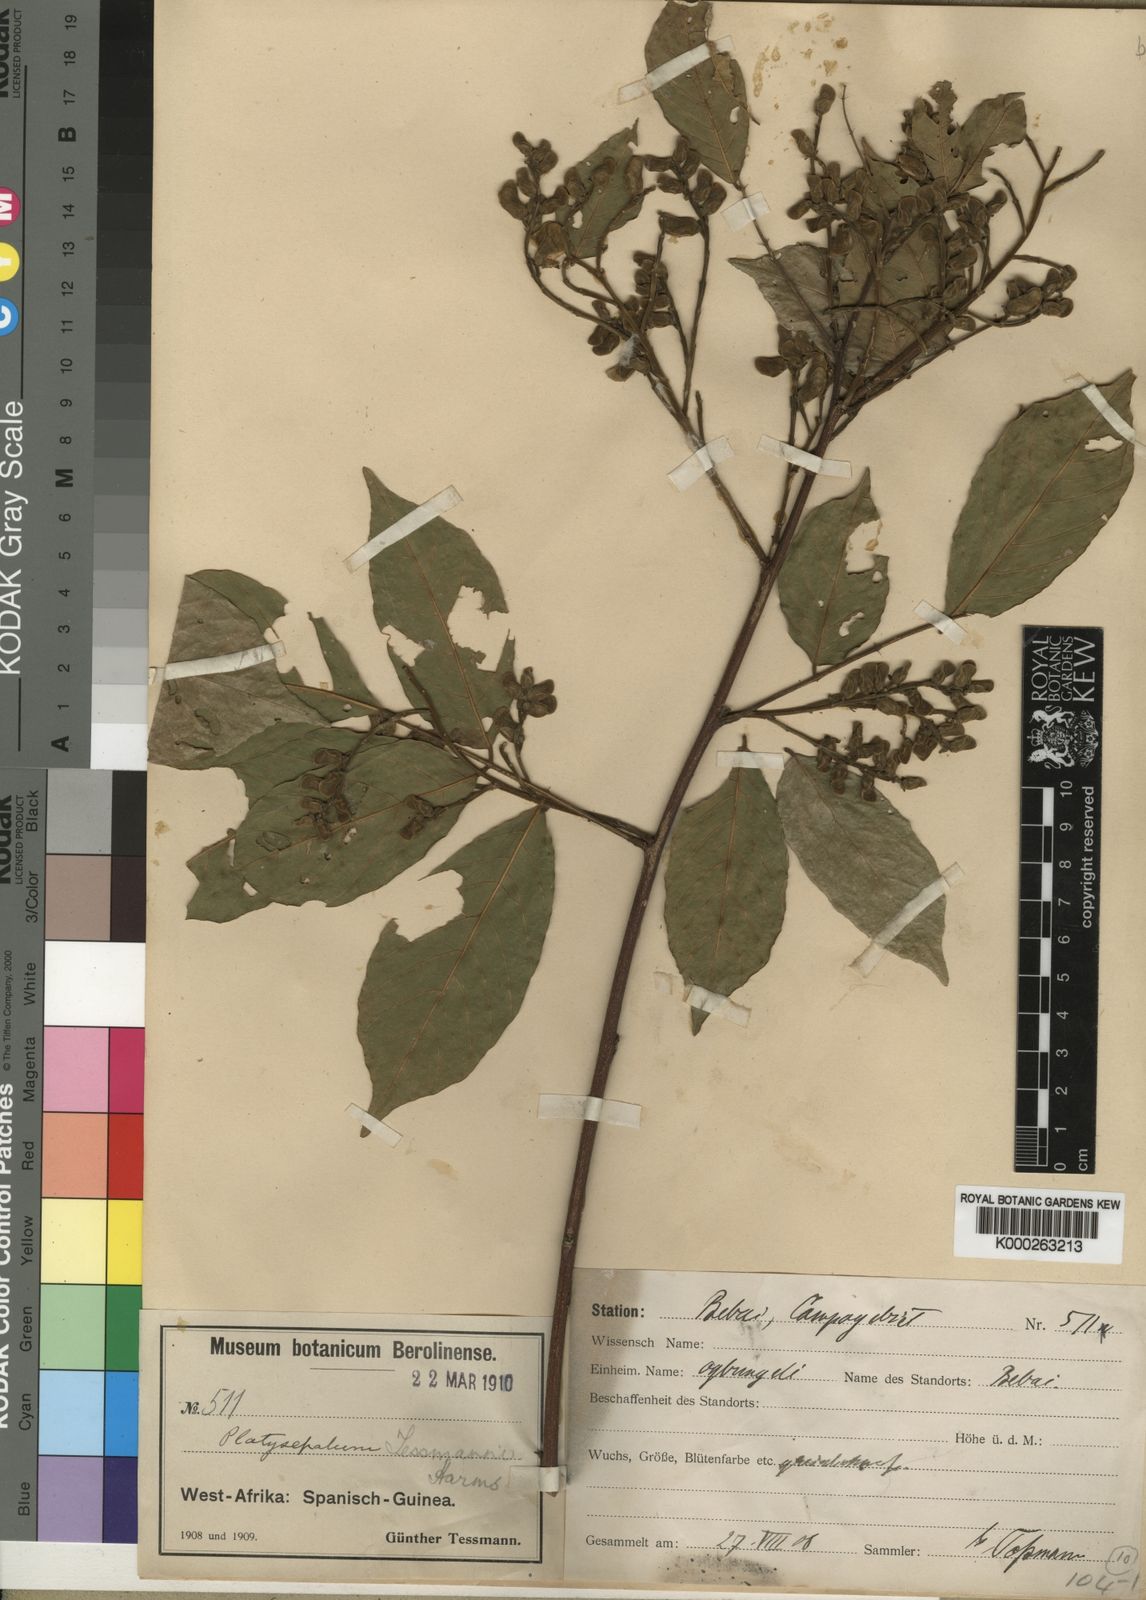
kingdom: Plantae
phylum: Tracheophyta
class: Magnoliopsida
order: Fabales
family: Fabaceae
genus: Platysepalum
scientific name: Platysepalum violaceum
